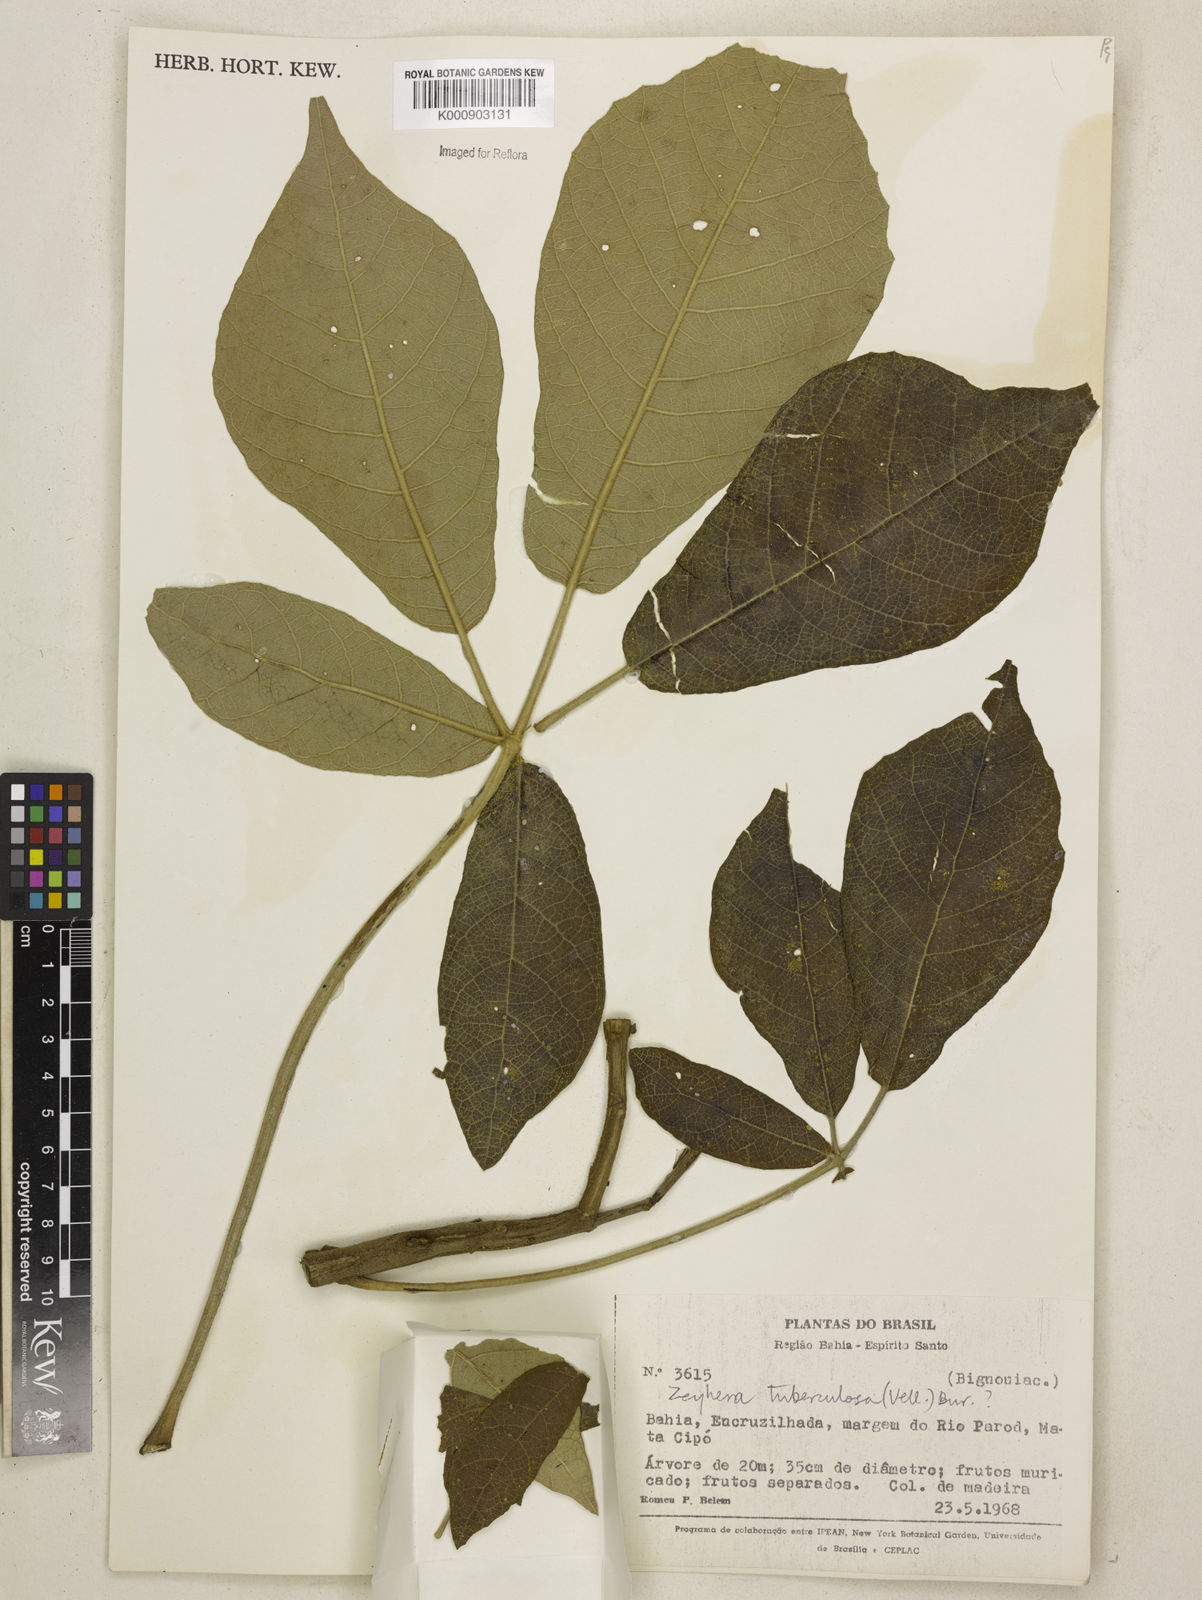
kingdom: Plantae
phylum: Tracheophyta
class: Magnoliopsida
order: Lamiales
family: Bignoniaceae
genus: Zeyheria
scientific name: Zeyheria
